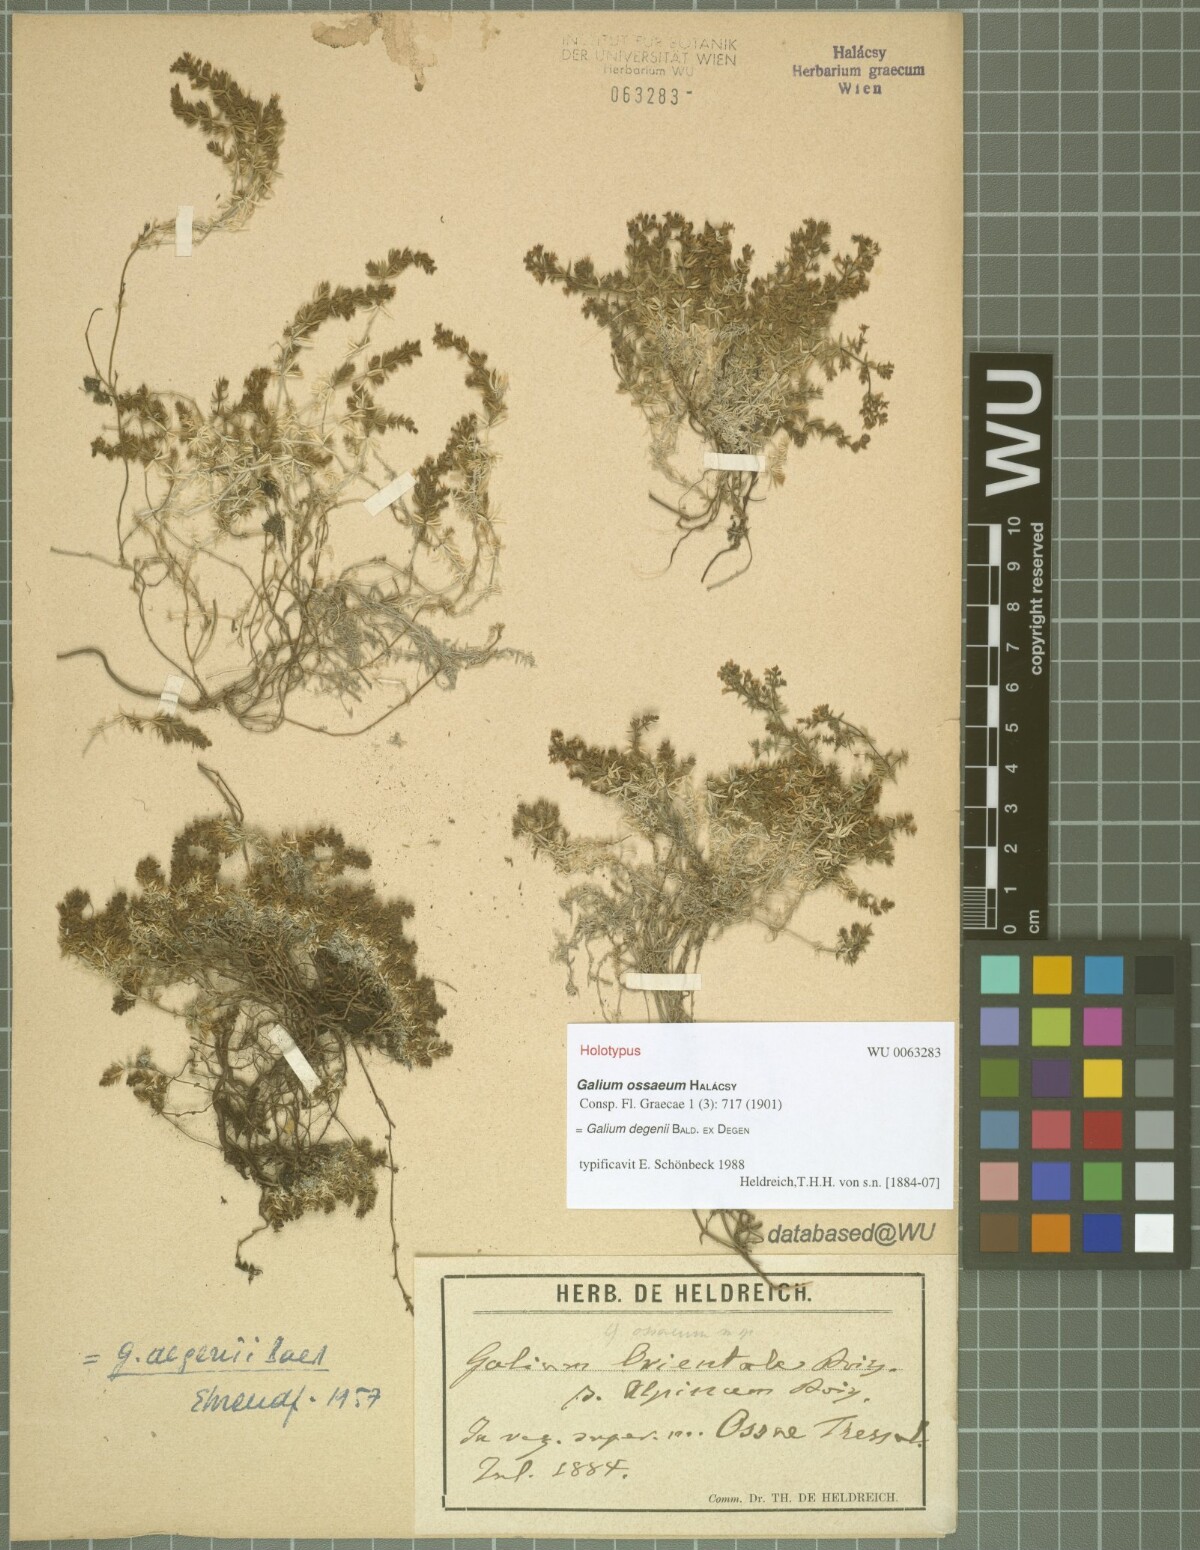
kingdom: Plantae
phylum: Tracheophyta
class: Magnoliopsida
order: Gentianales
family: Rubiaceae
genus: Galium
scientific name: Galium degenii
